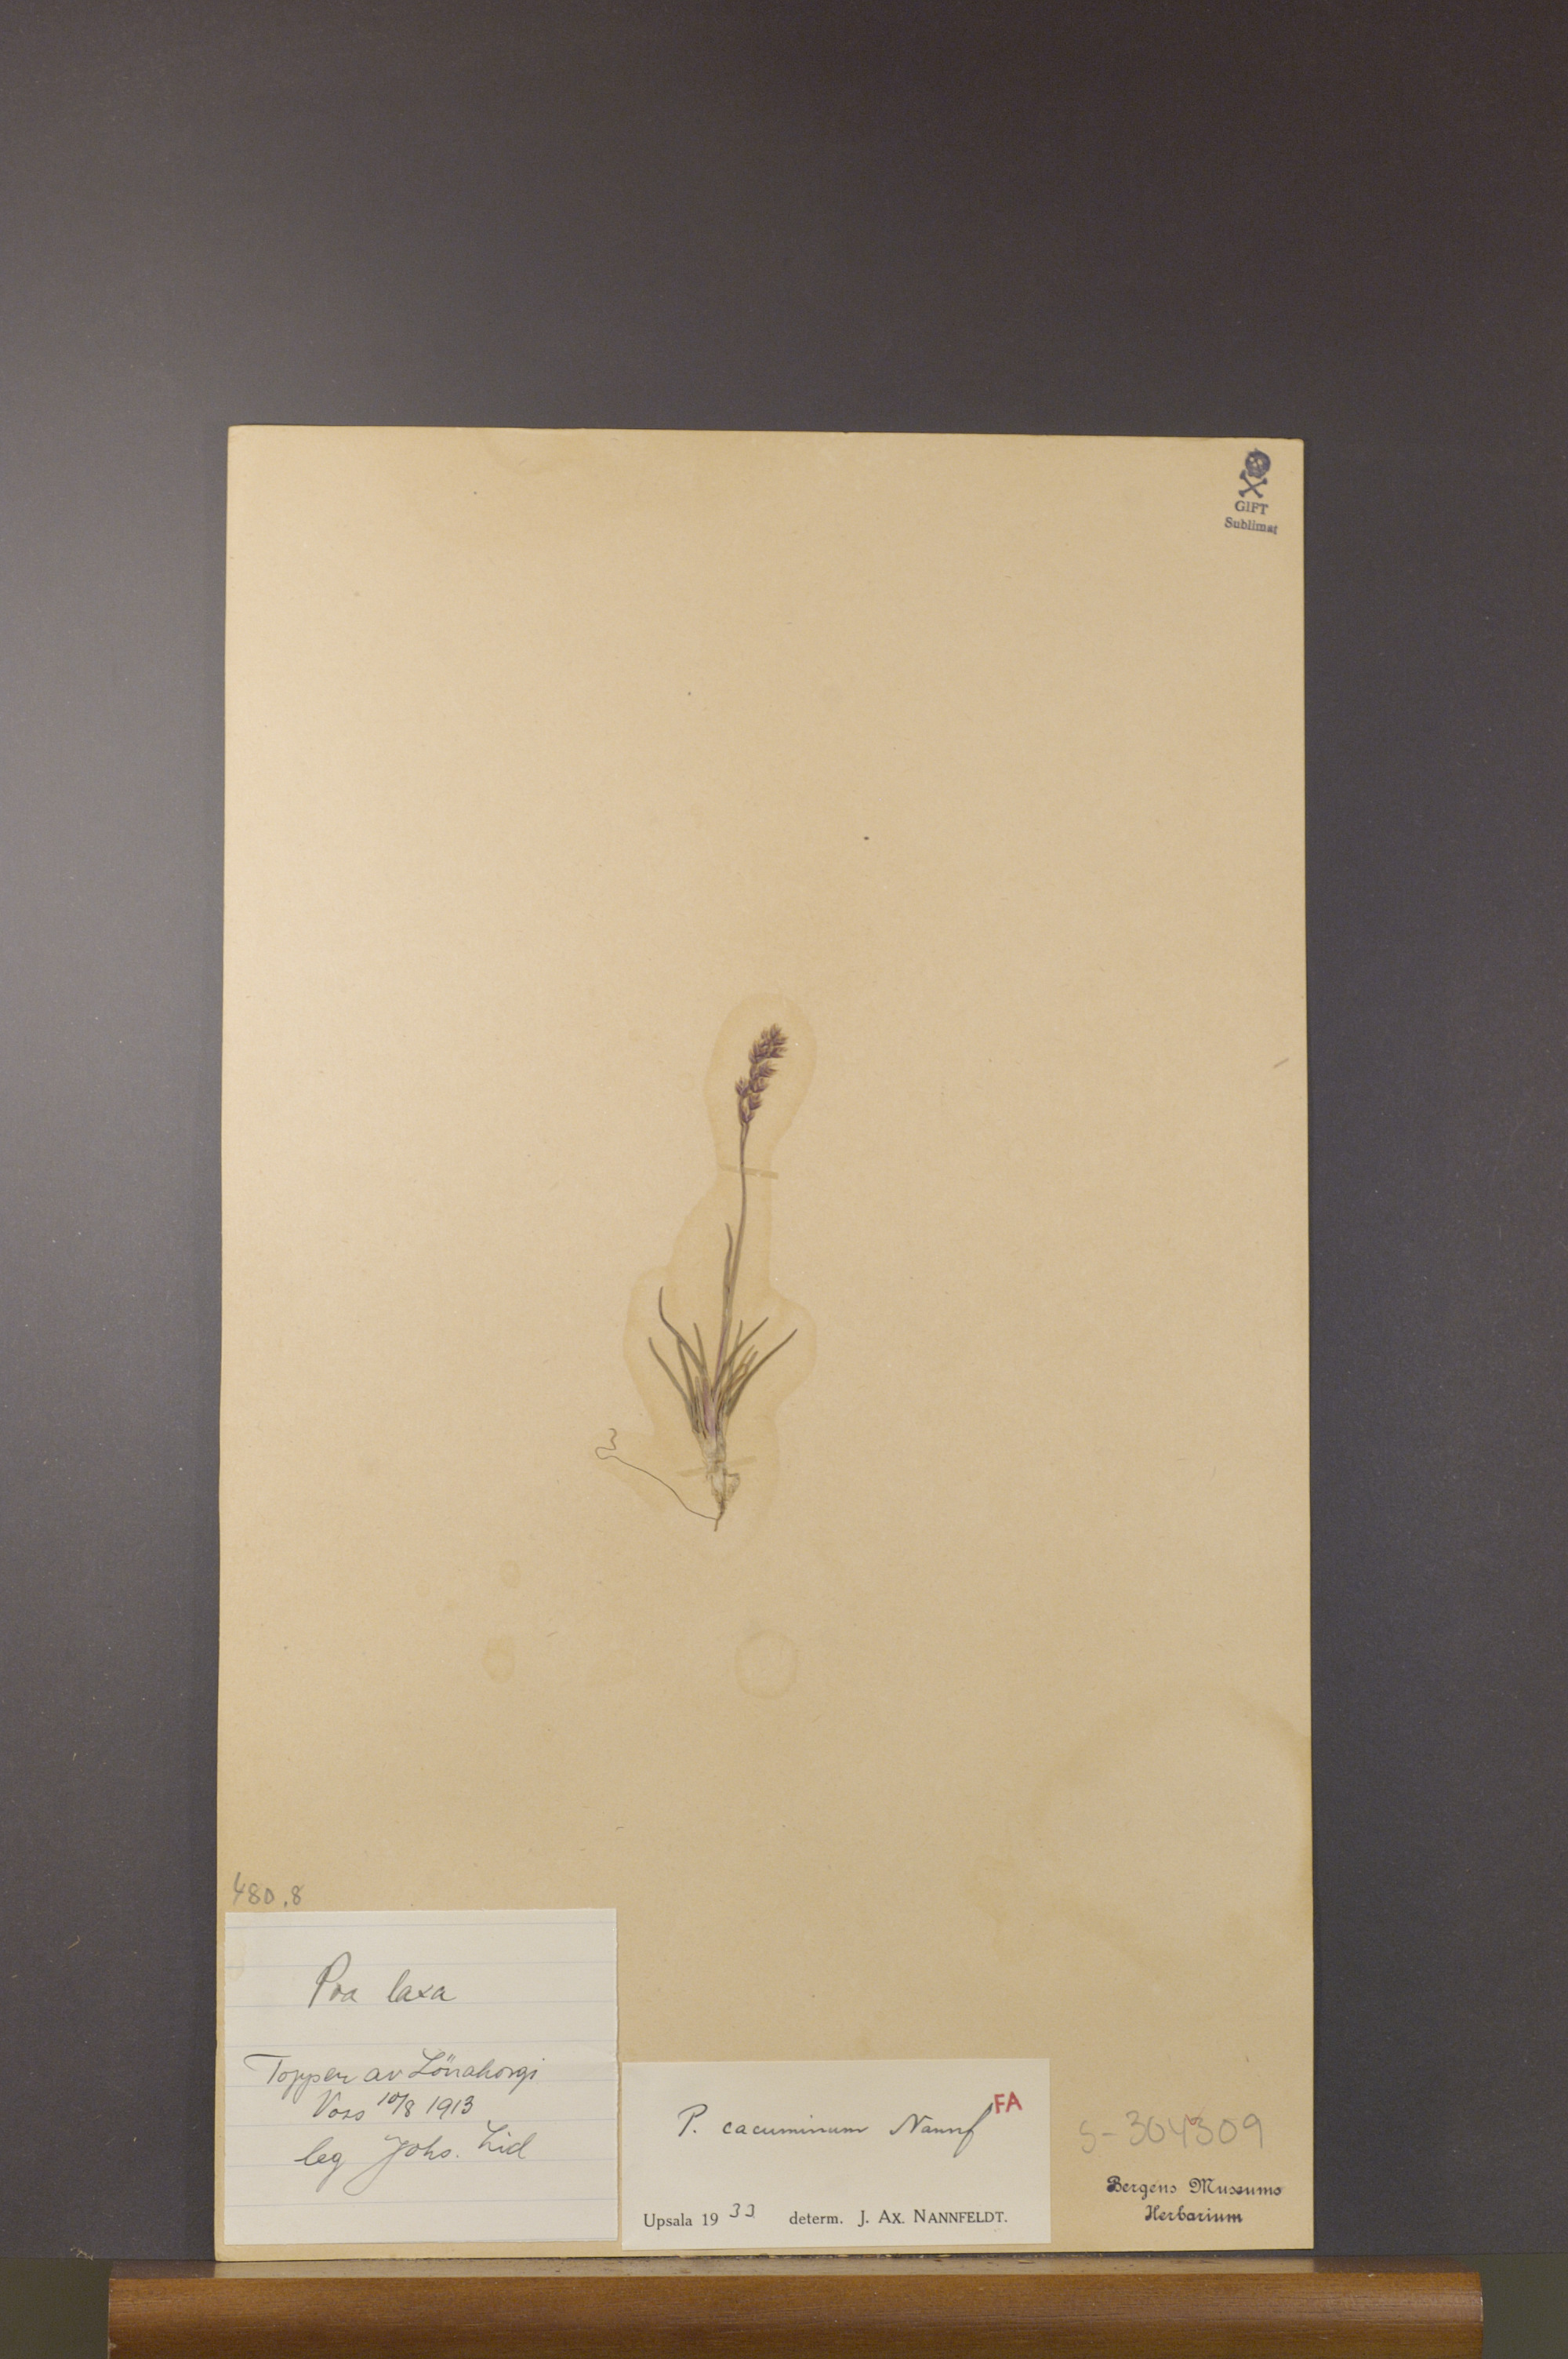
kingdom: Plantae
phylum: Tracheophyta
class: Liliopsida
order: Poales
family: Poaceae
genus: Poa
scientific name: Poa flexuosa
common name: Wavy meadow-grass
